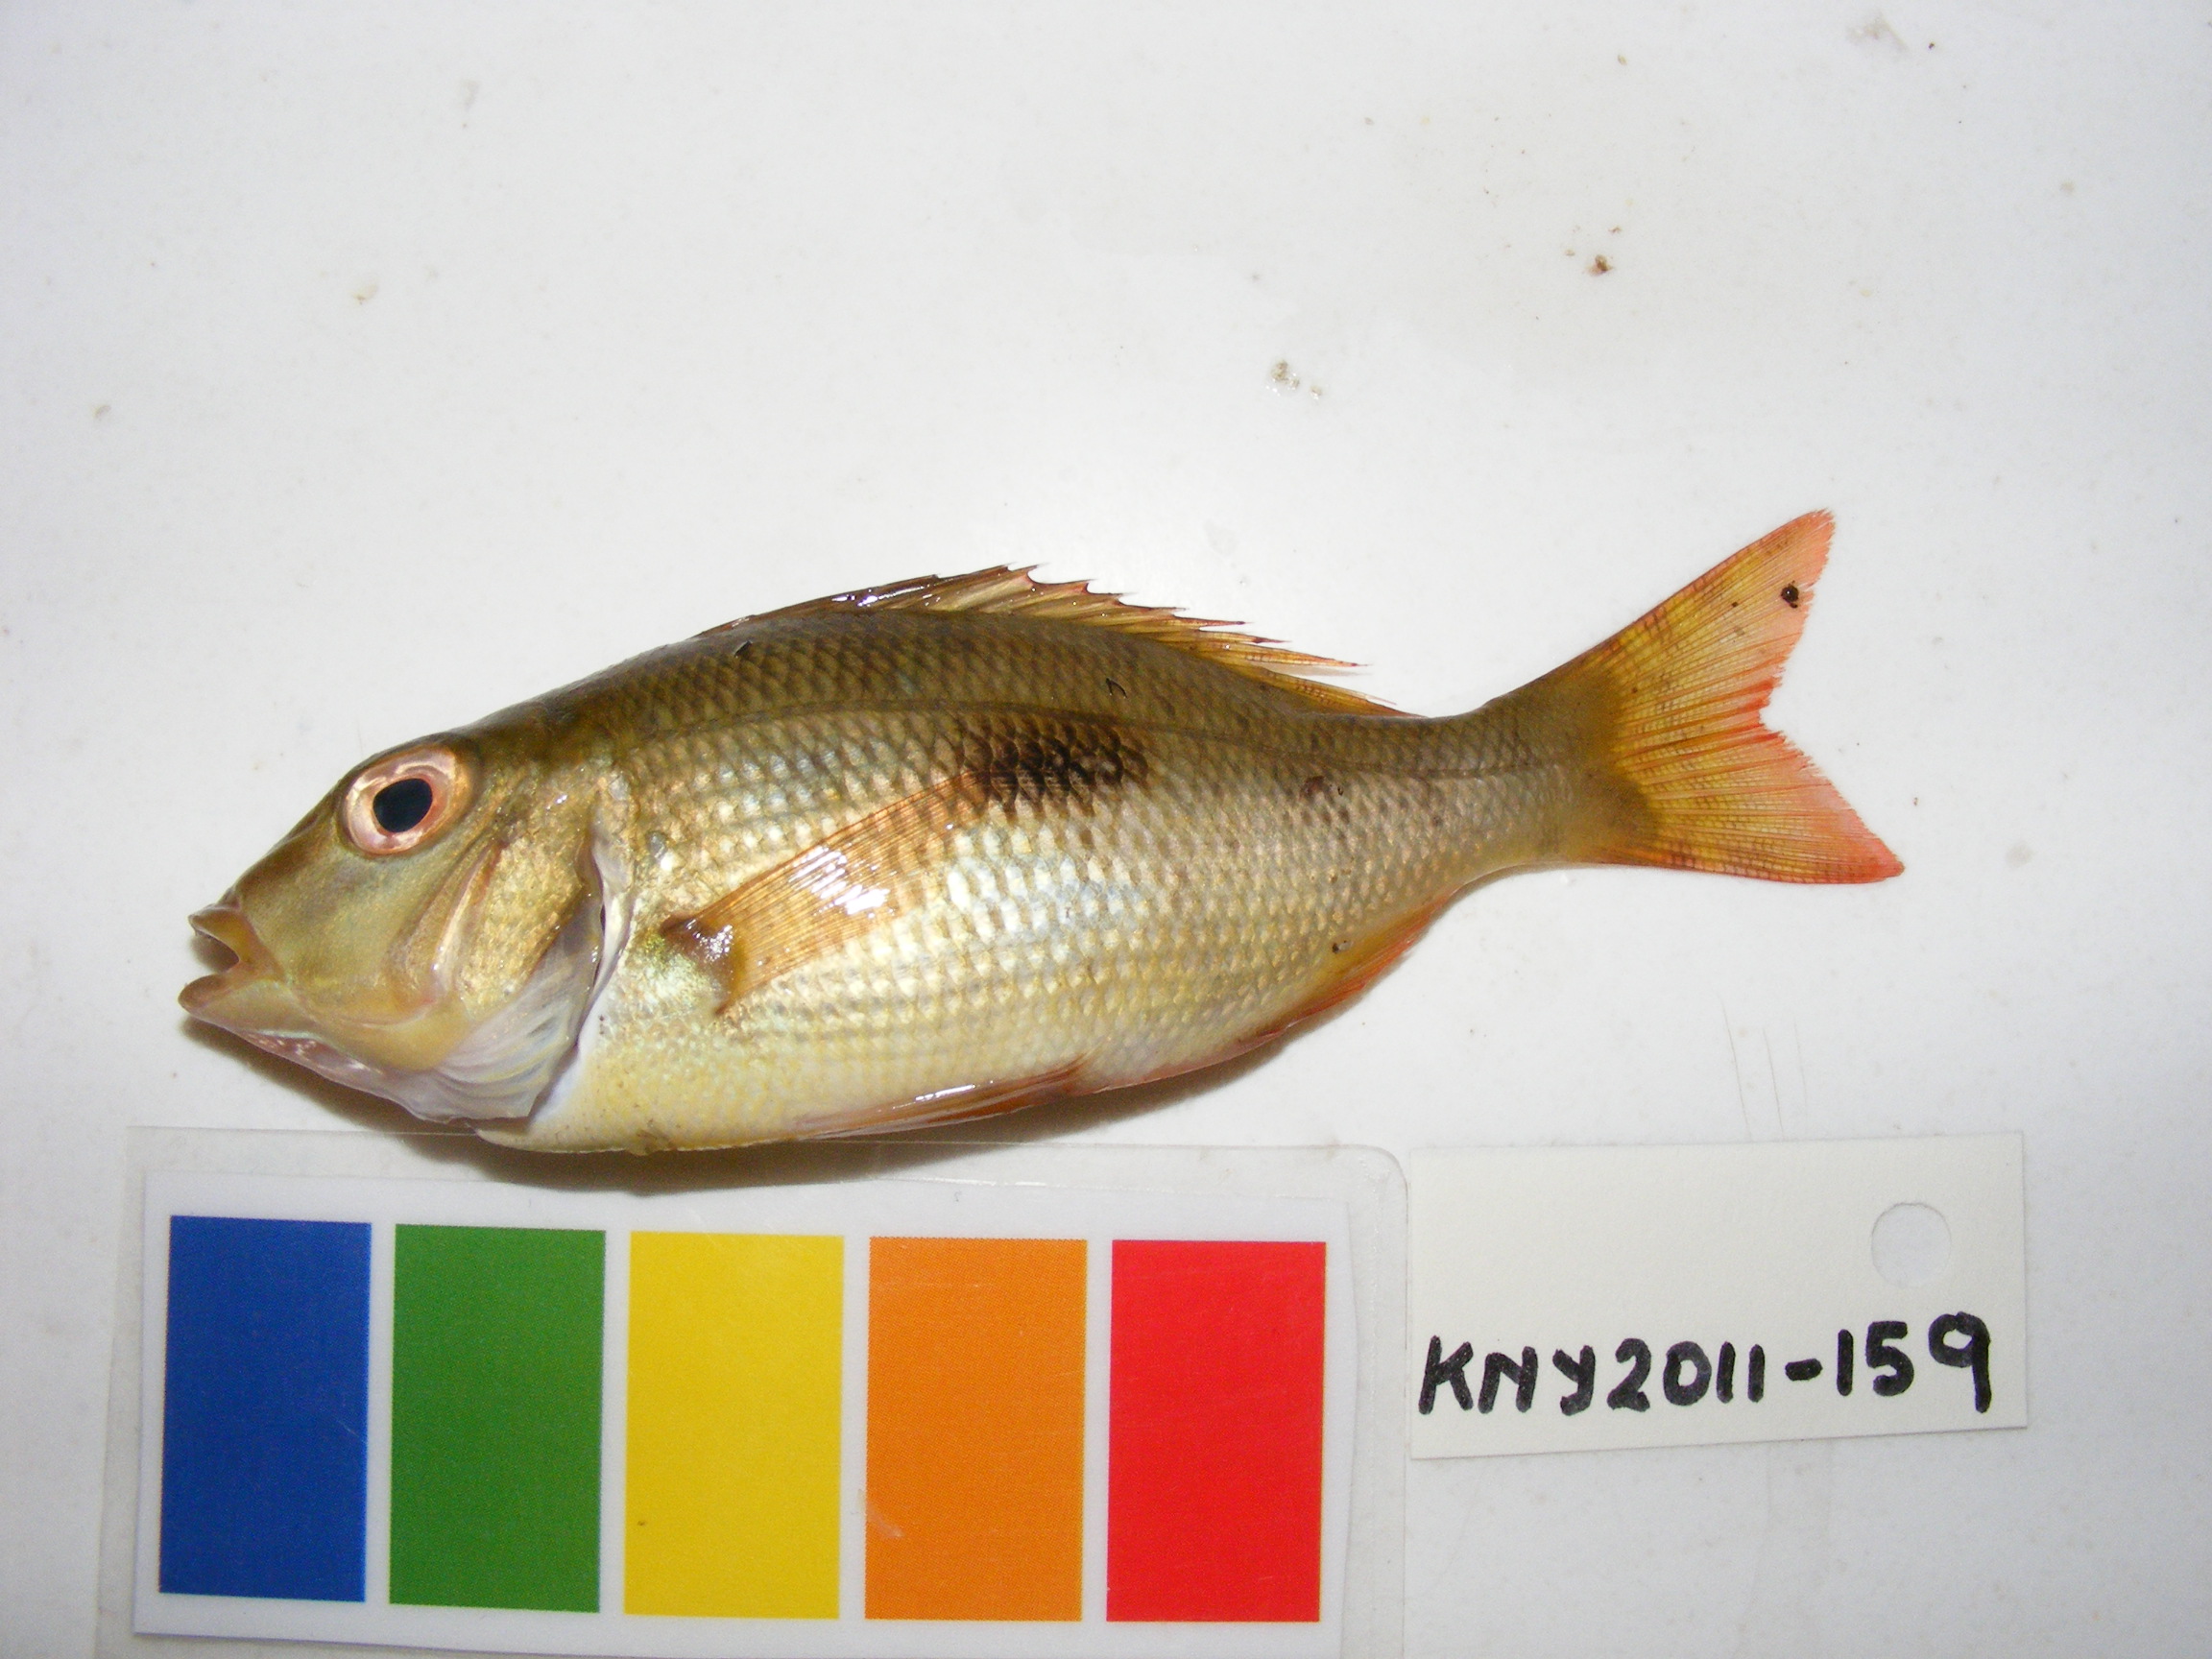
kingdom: Animalia
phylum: Chordata
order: Perciformes
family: Lethrinidae
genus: Lethrinus
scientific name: Lethrinus harak
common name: Blackspot emperor
